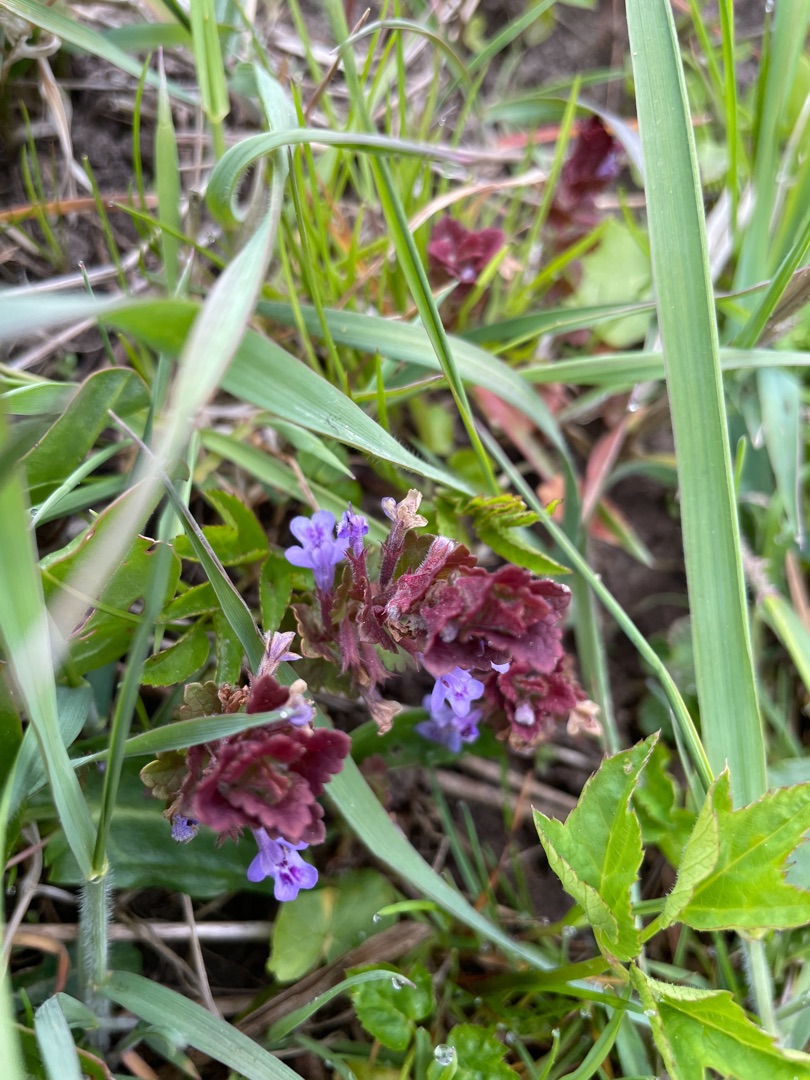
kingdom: Plantae
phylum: Tracheophyta
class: Magnoliopsida
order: Lamiales
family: Lamiaceae
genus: Glechoma
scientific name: Glechoma hederacea
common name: Korsknap
